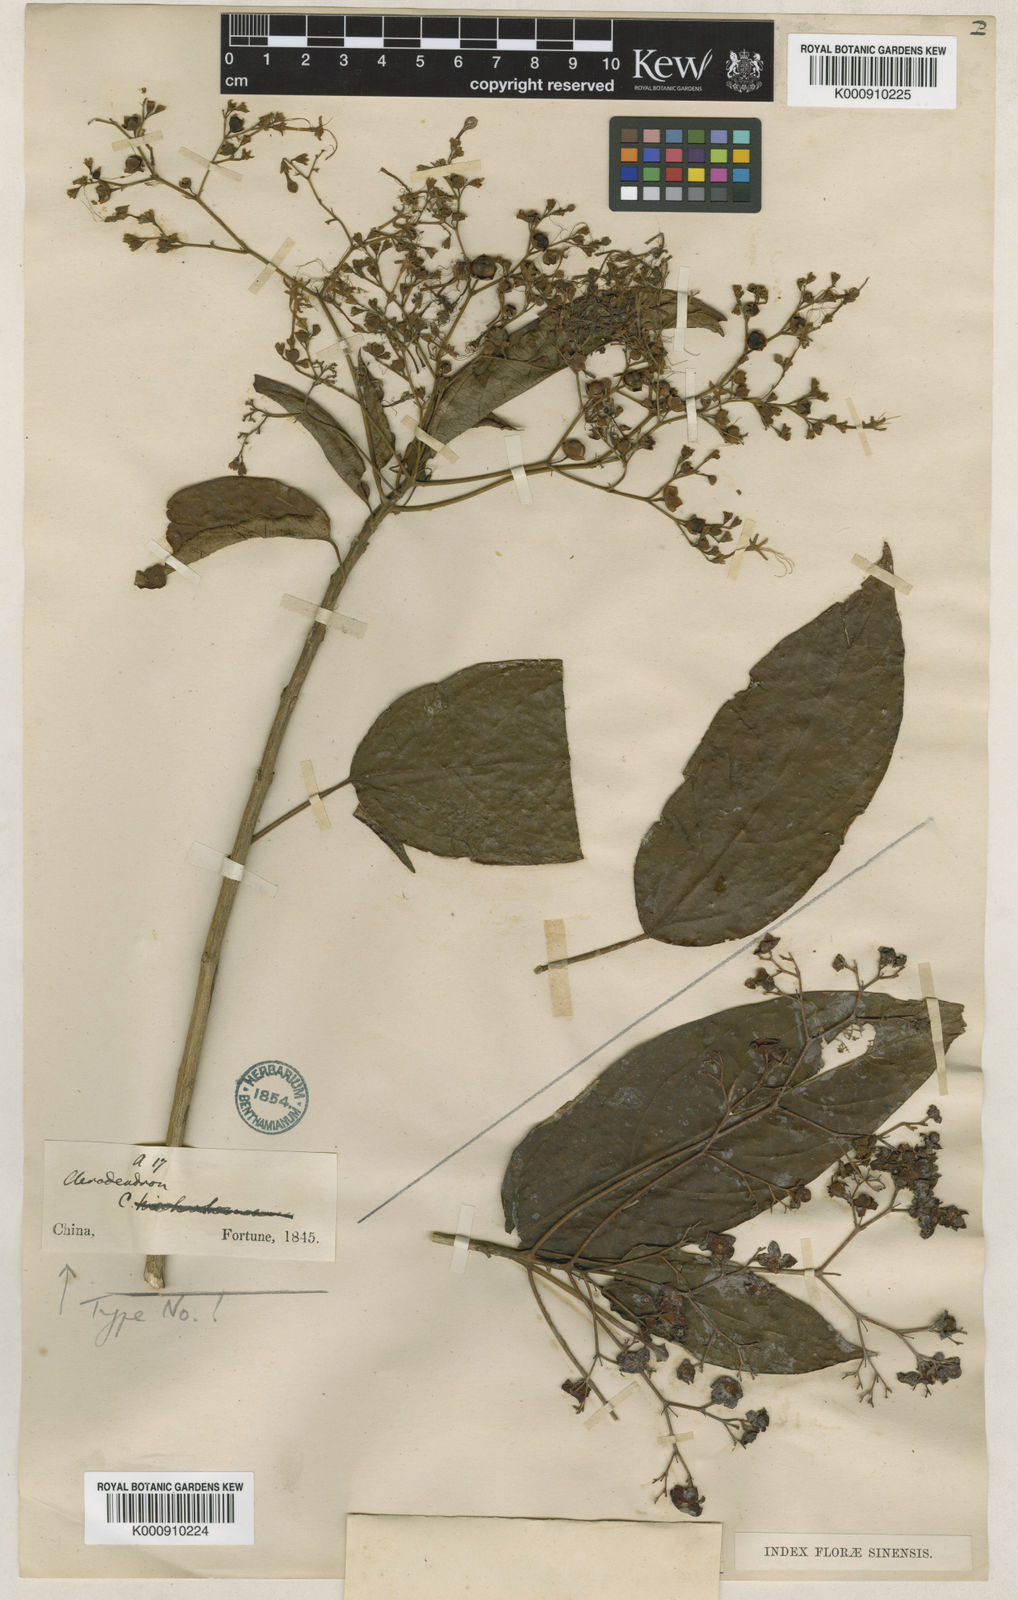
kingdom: Plantae
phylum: Tracheophyta
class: Magnoliopsida
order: Lamiales
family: Lamiaceae
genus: Clerodendrum
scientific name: Clerodendrum cyrtophyllum
